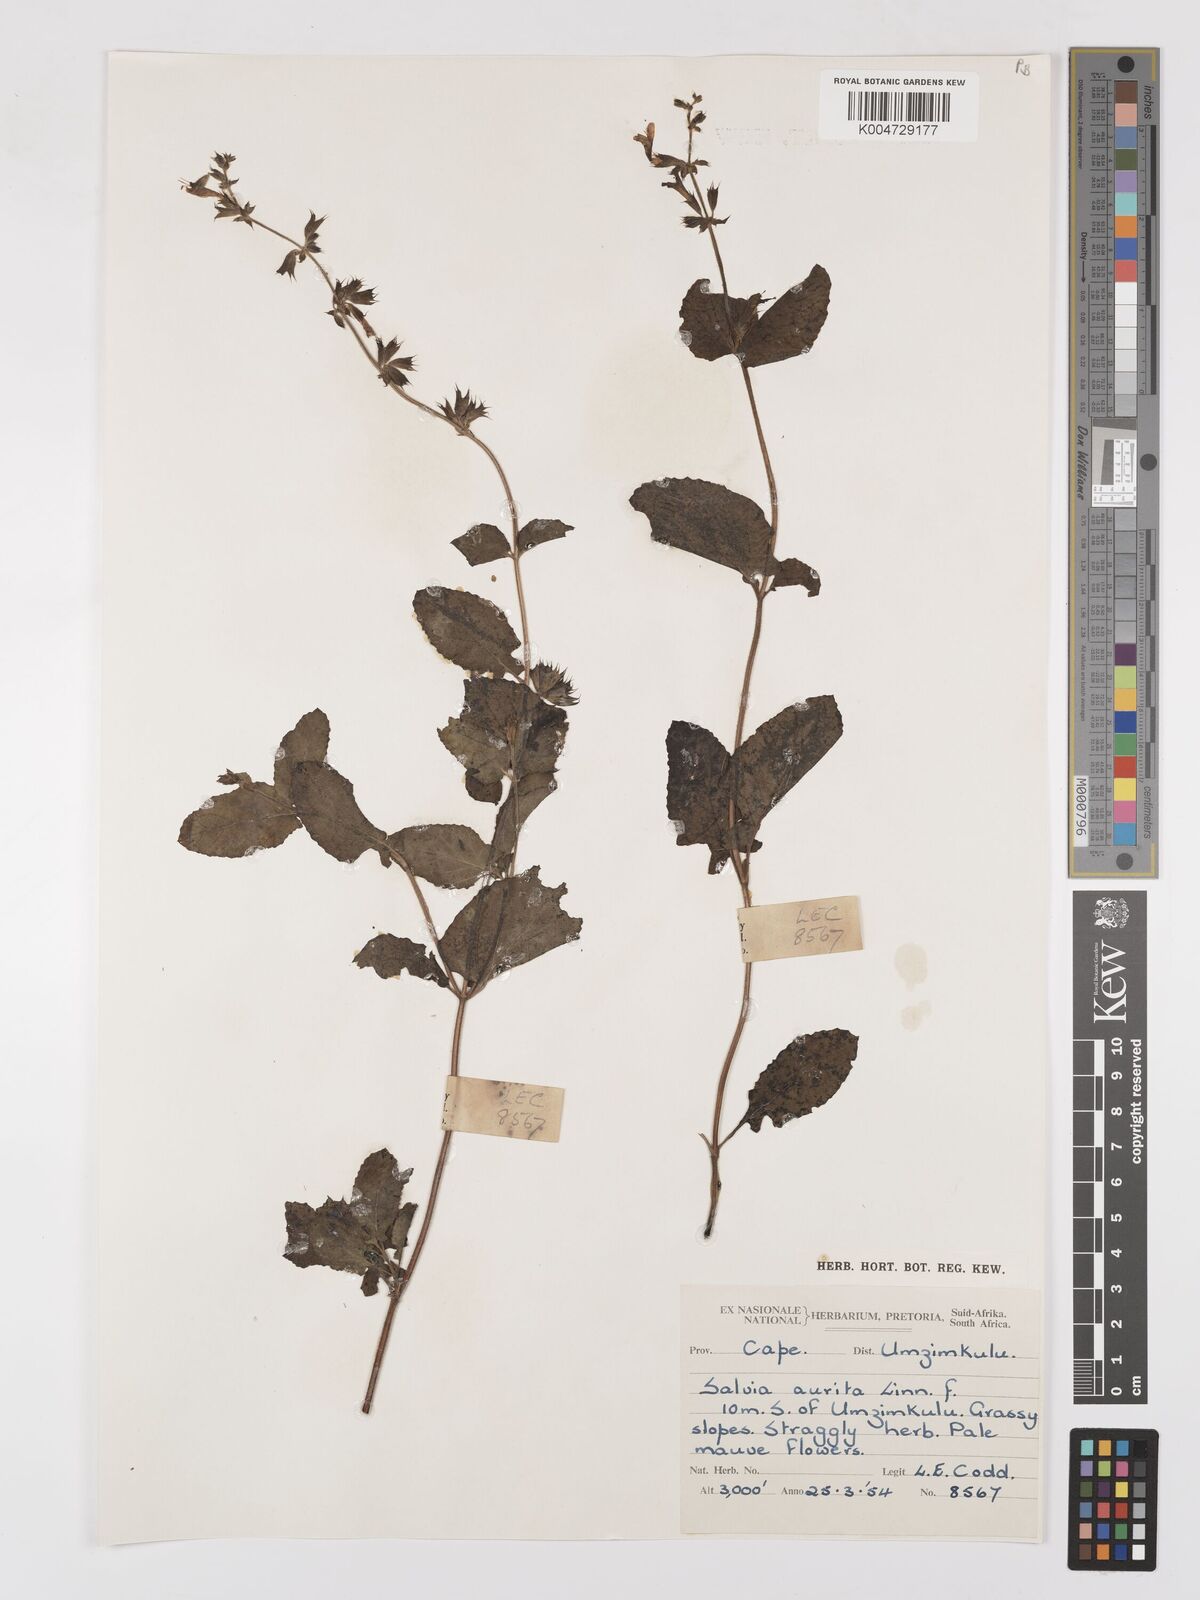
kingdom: Plantae
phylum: Tracheophyta
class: Magnoliopsida
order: Lamiales
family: Lamiaceae
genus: Salvia
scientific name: Salvia aurita
